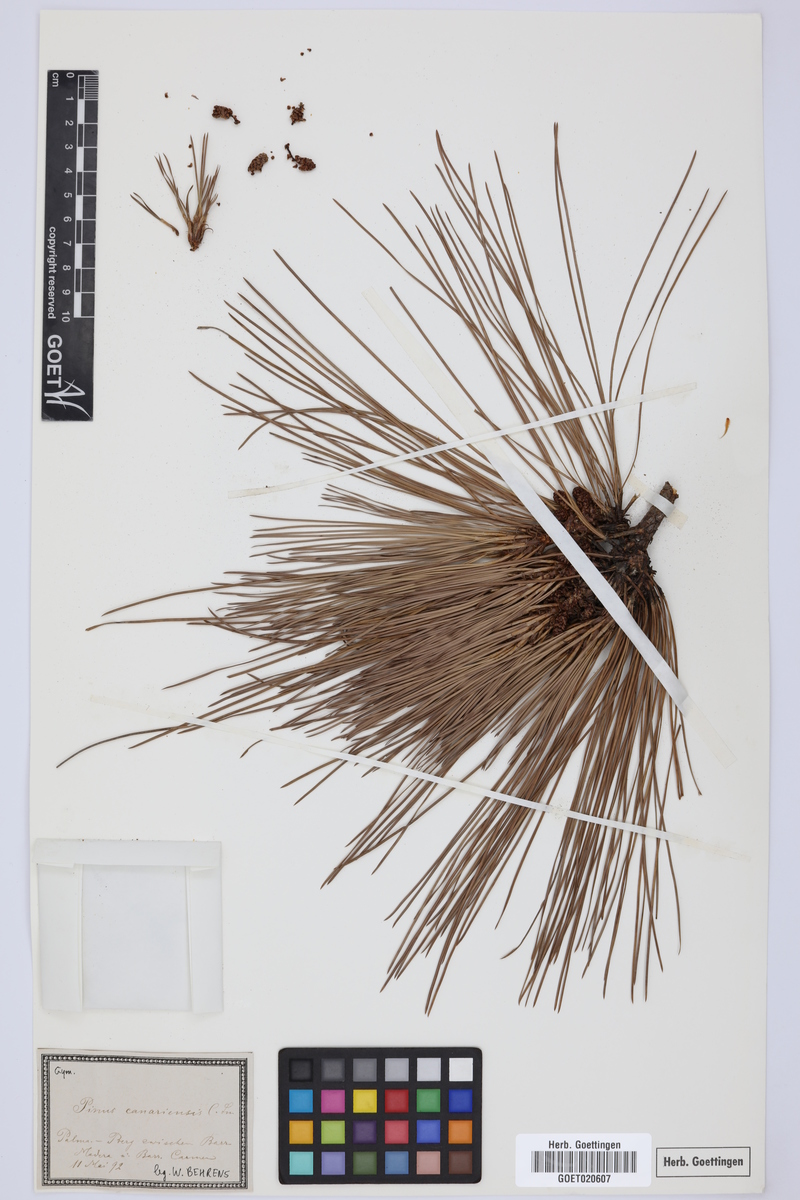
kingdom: Plantae
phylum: Tracheophyta
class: Pinopsida
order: Pinales
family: Pinaceae
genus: Pinus
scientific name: Pinus canariensis
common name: Canary islands pine
